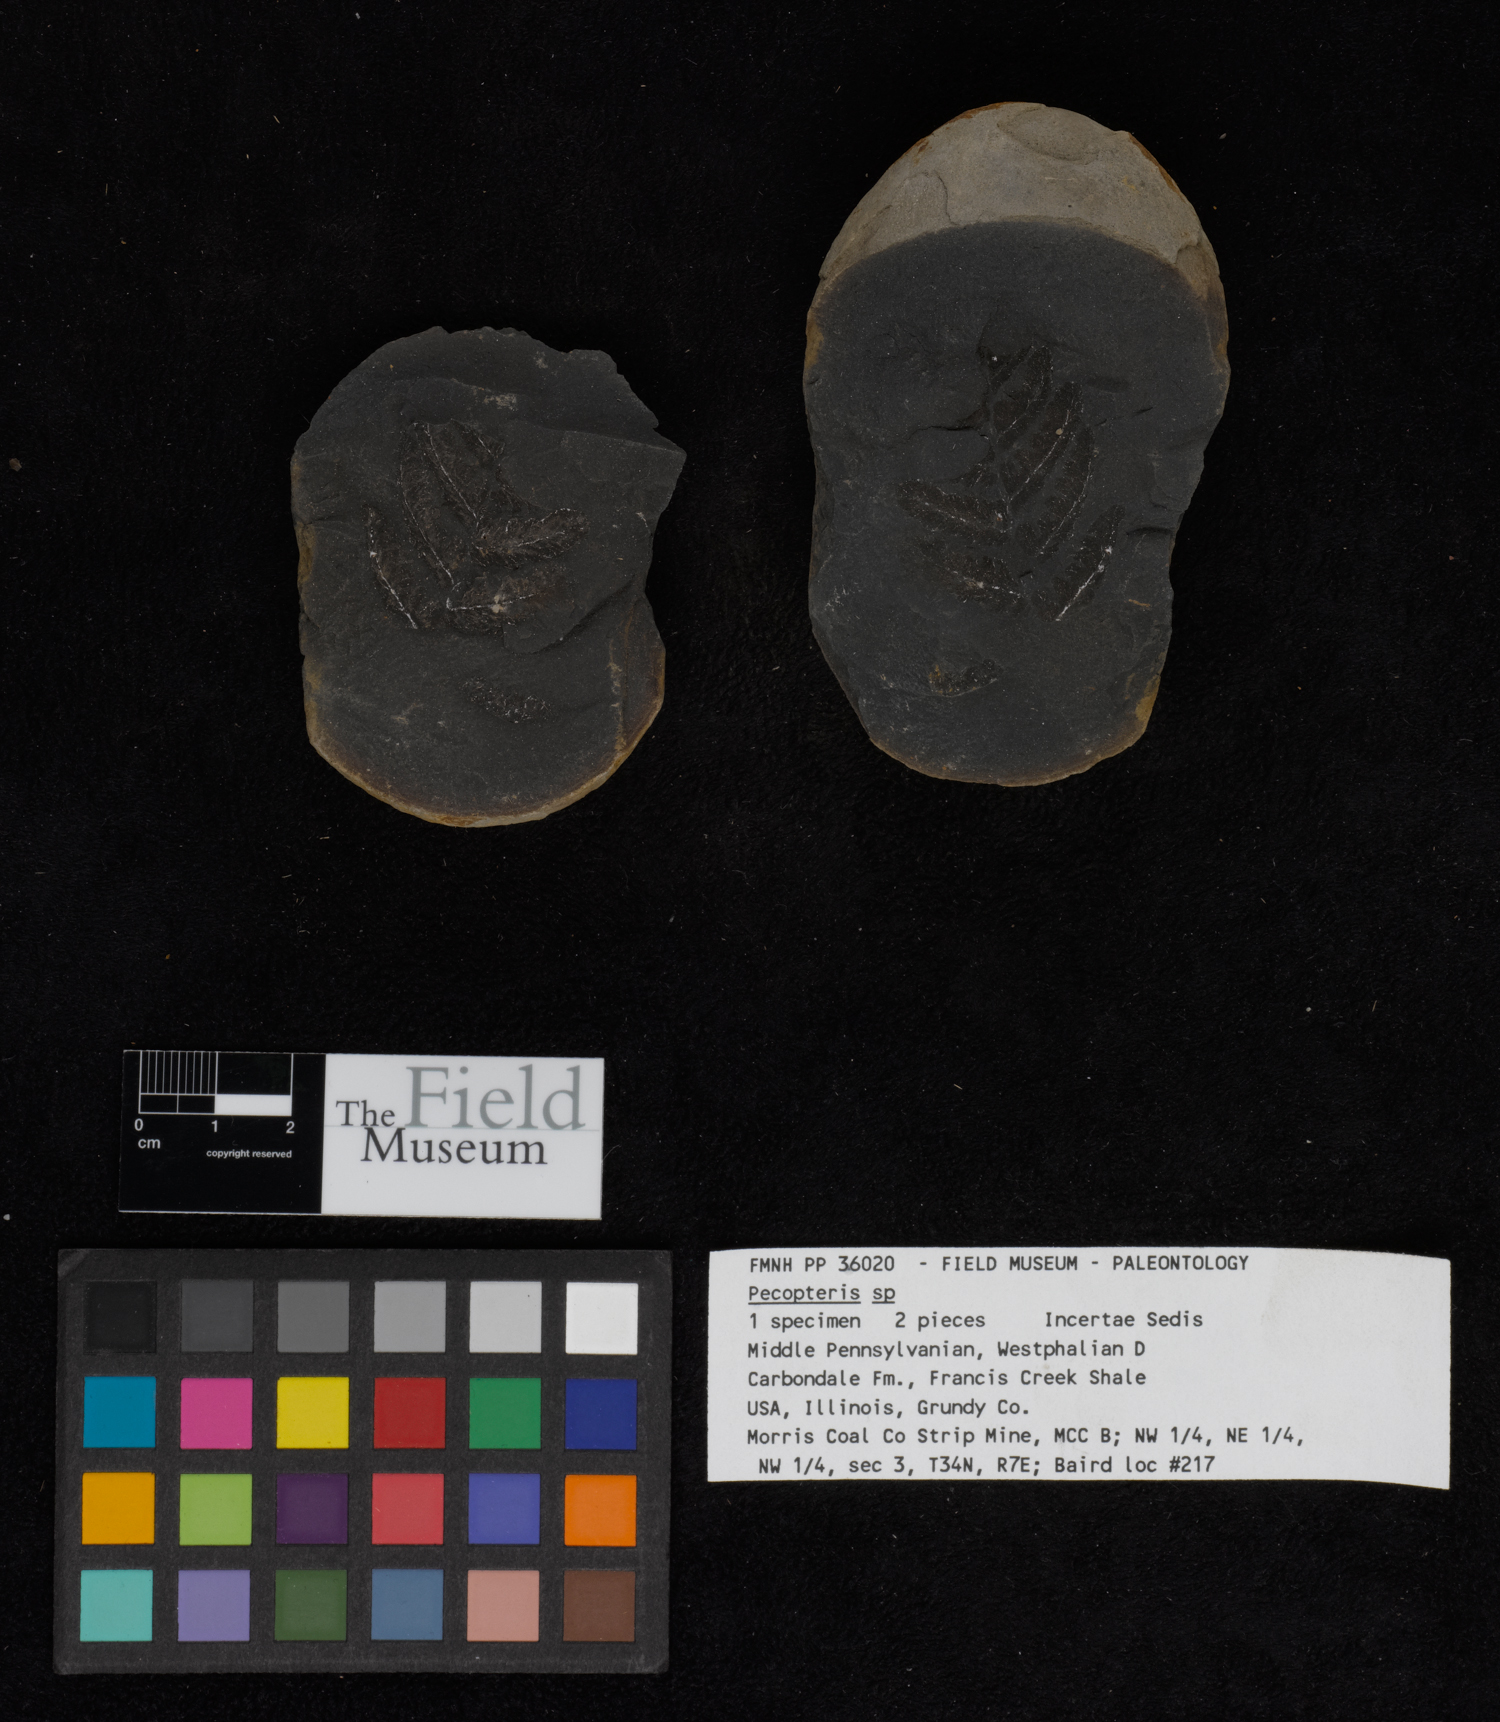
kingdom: Plantae
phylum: Tracheophyta
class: Polypodiopsida
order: Marattiales
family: Asterothecaceae
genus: Pecopteris
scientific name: Pecopteris
